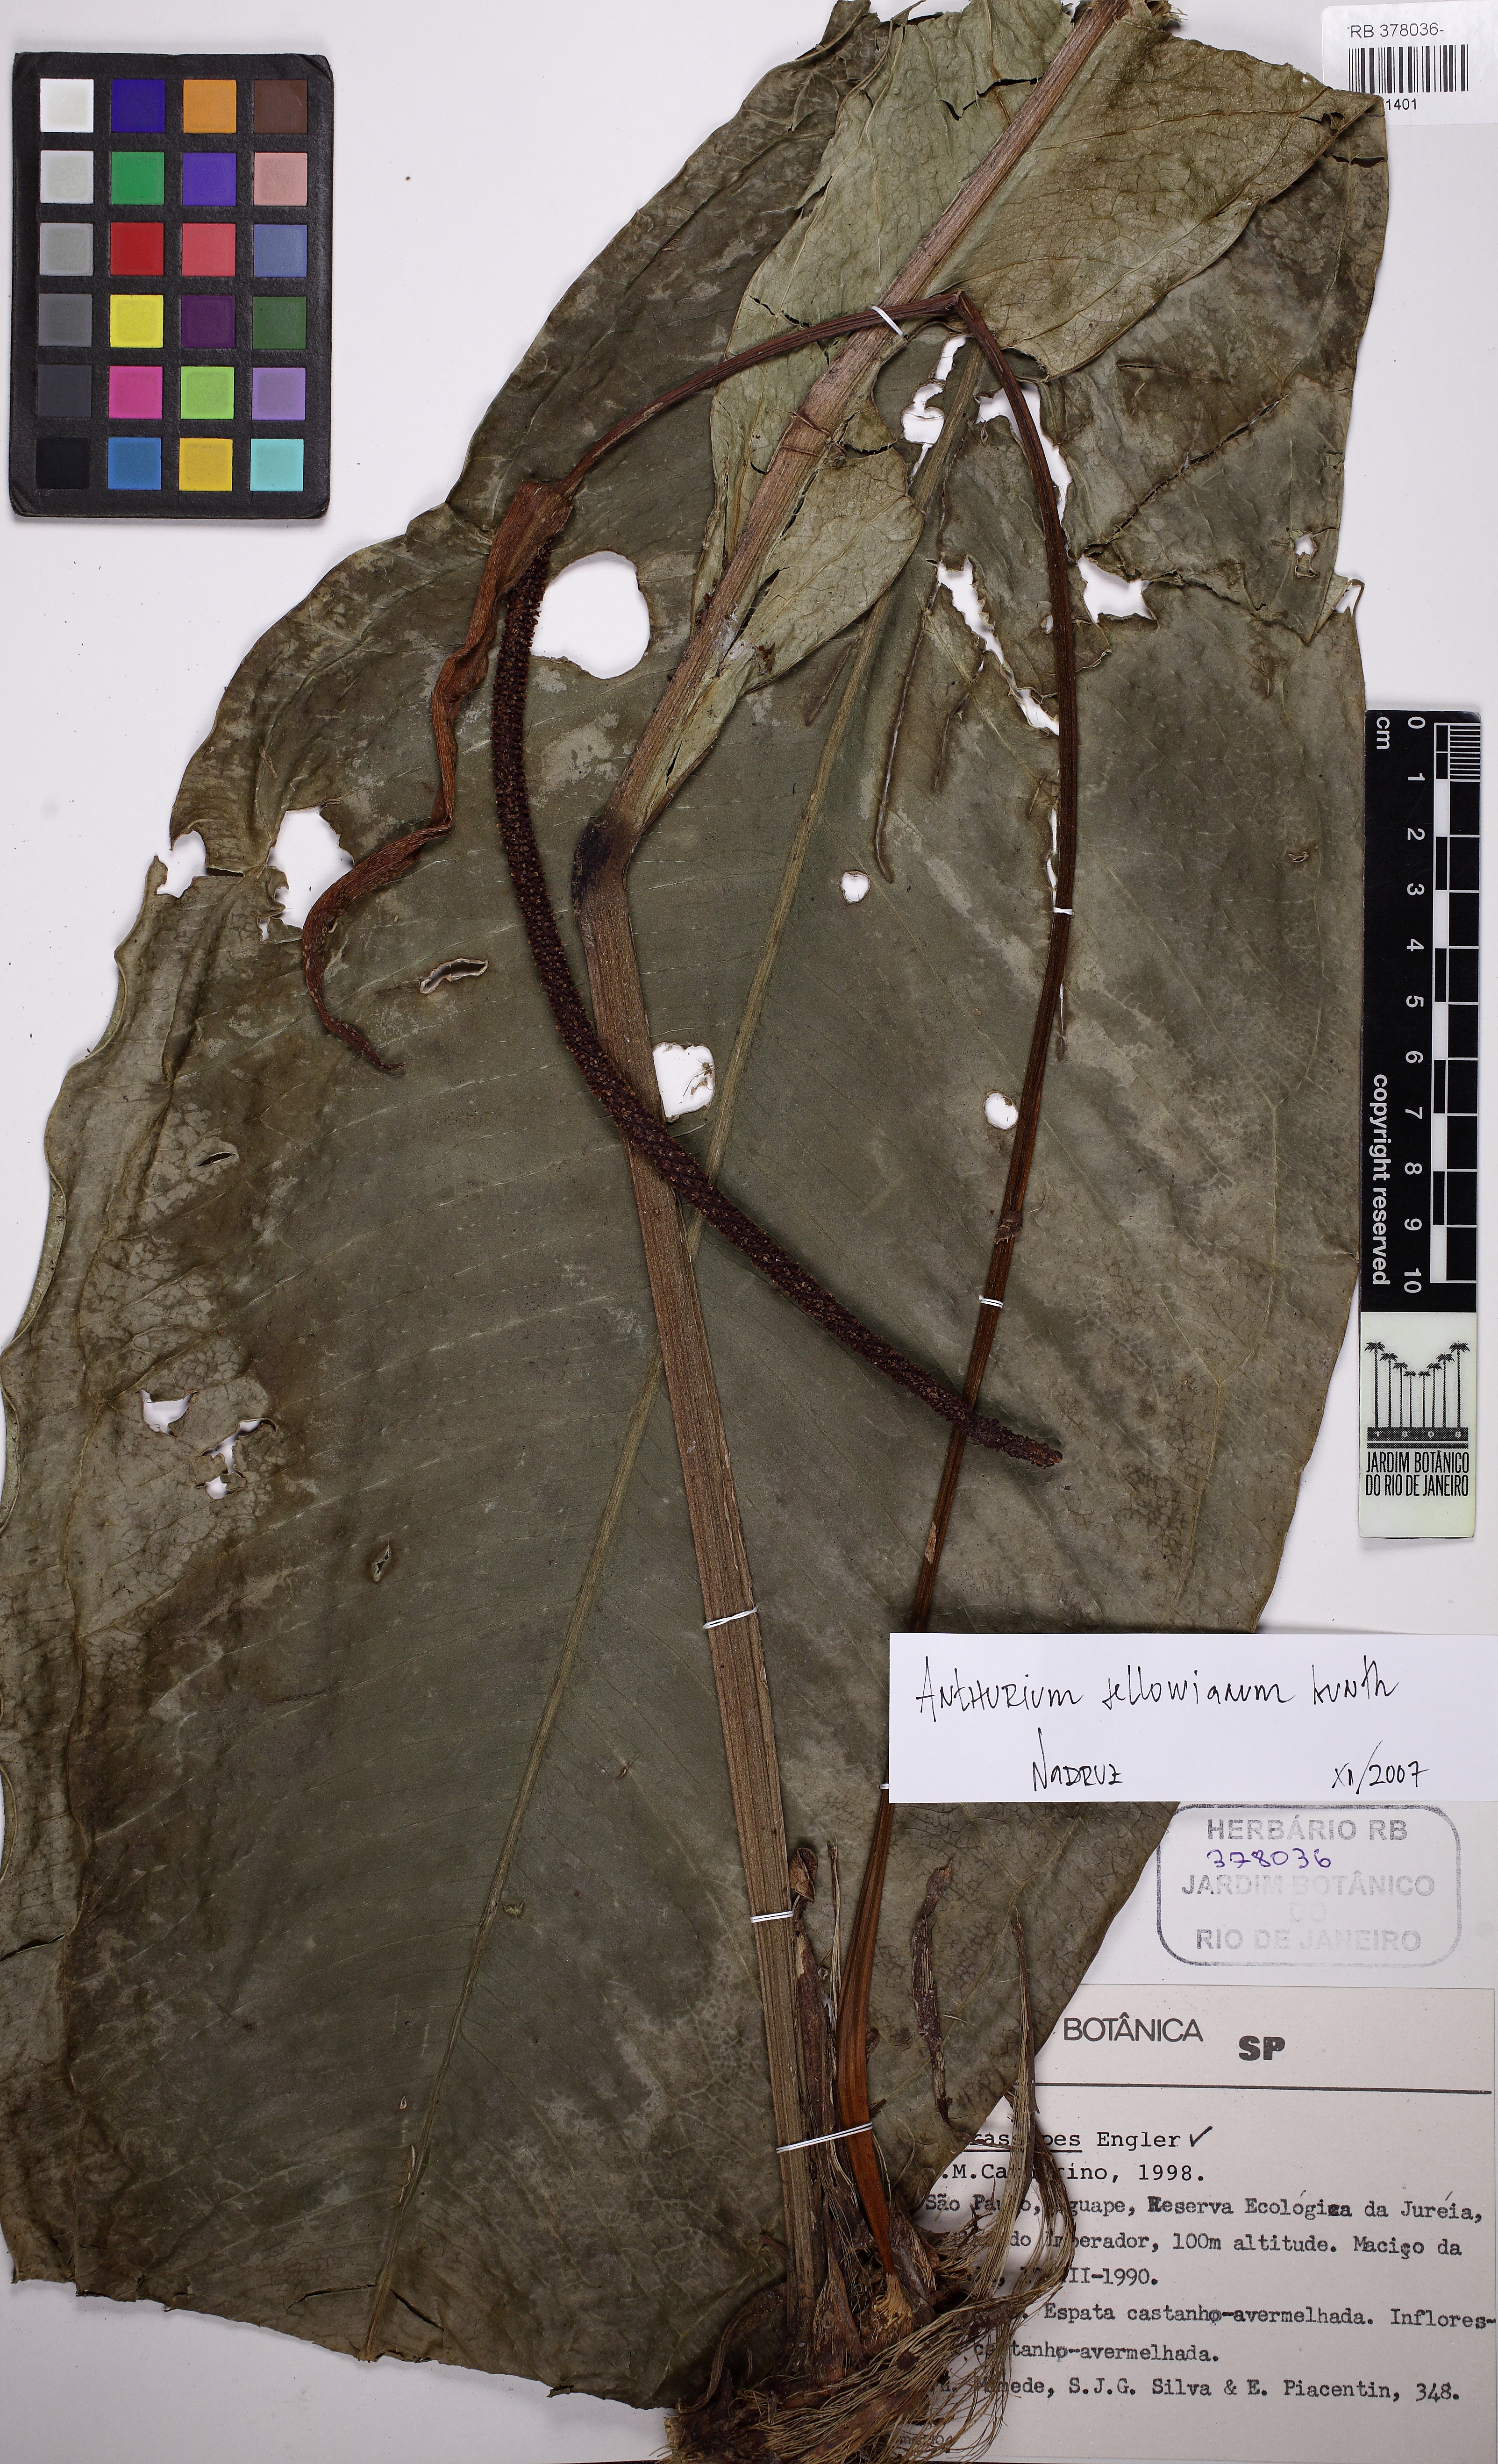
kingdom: Plantae
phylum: Tracheophyta
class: Liliopsida
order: Alismatales
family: Araceae
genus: Anthurium
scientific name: Anthurium sellowianum
